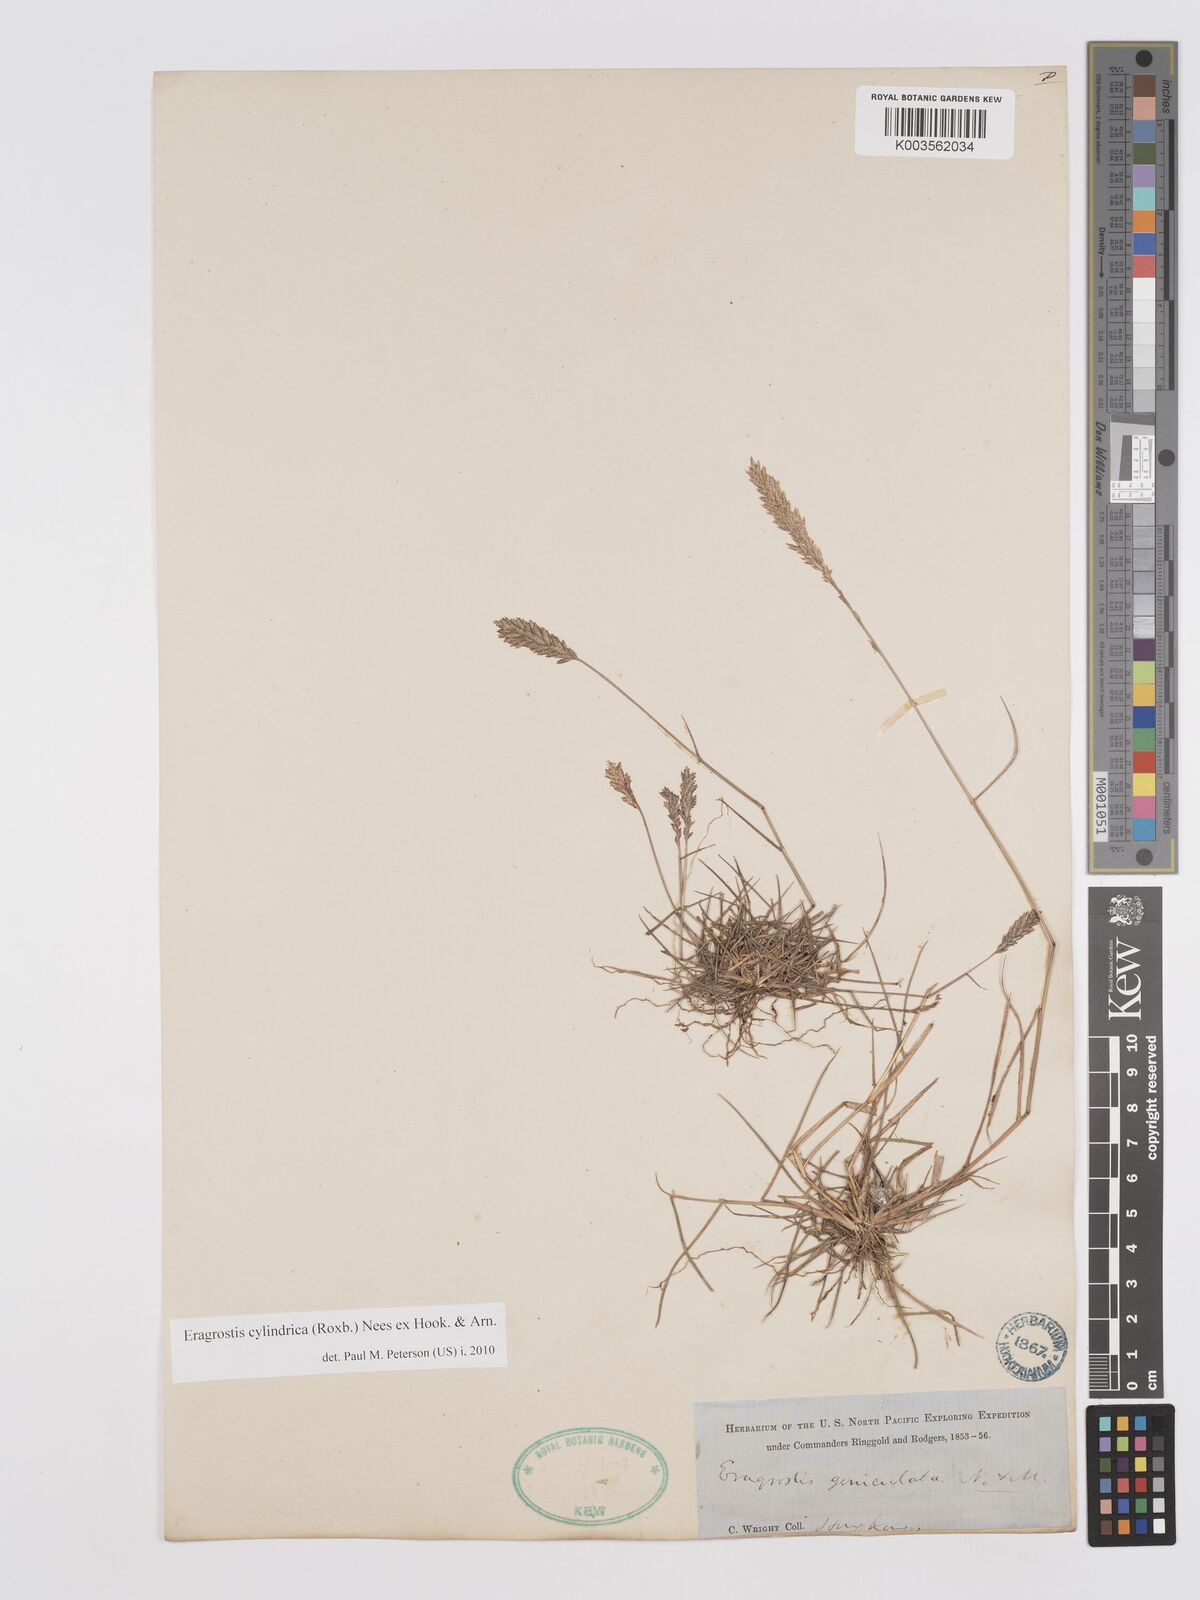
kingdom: Plantae
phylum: Tracheophyta
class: Liliopsida
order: Poales
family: Poaceae
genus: Eragrostis
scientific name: Eragrostis cylindrica
